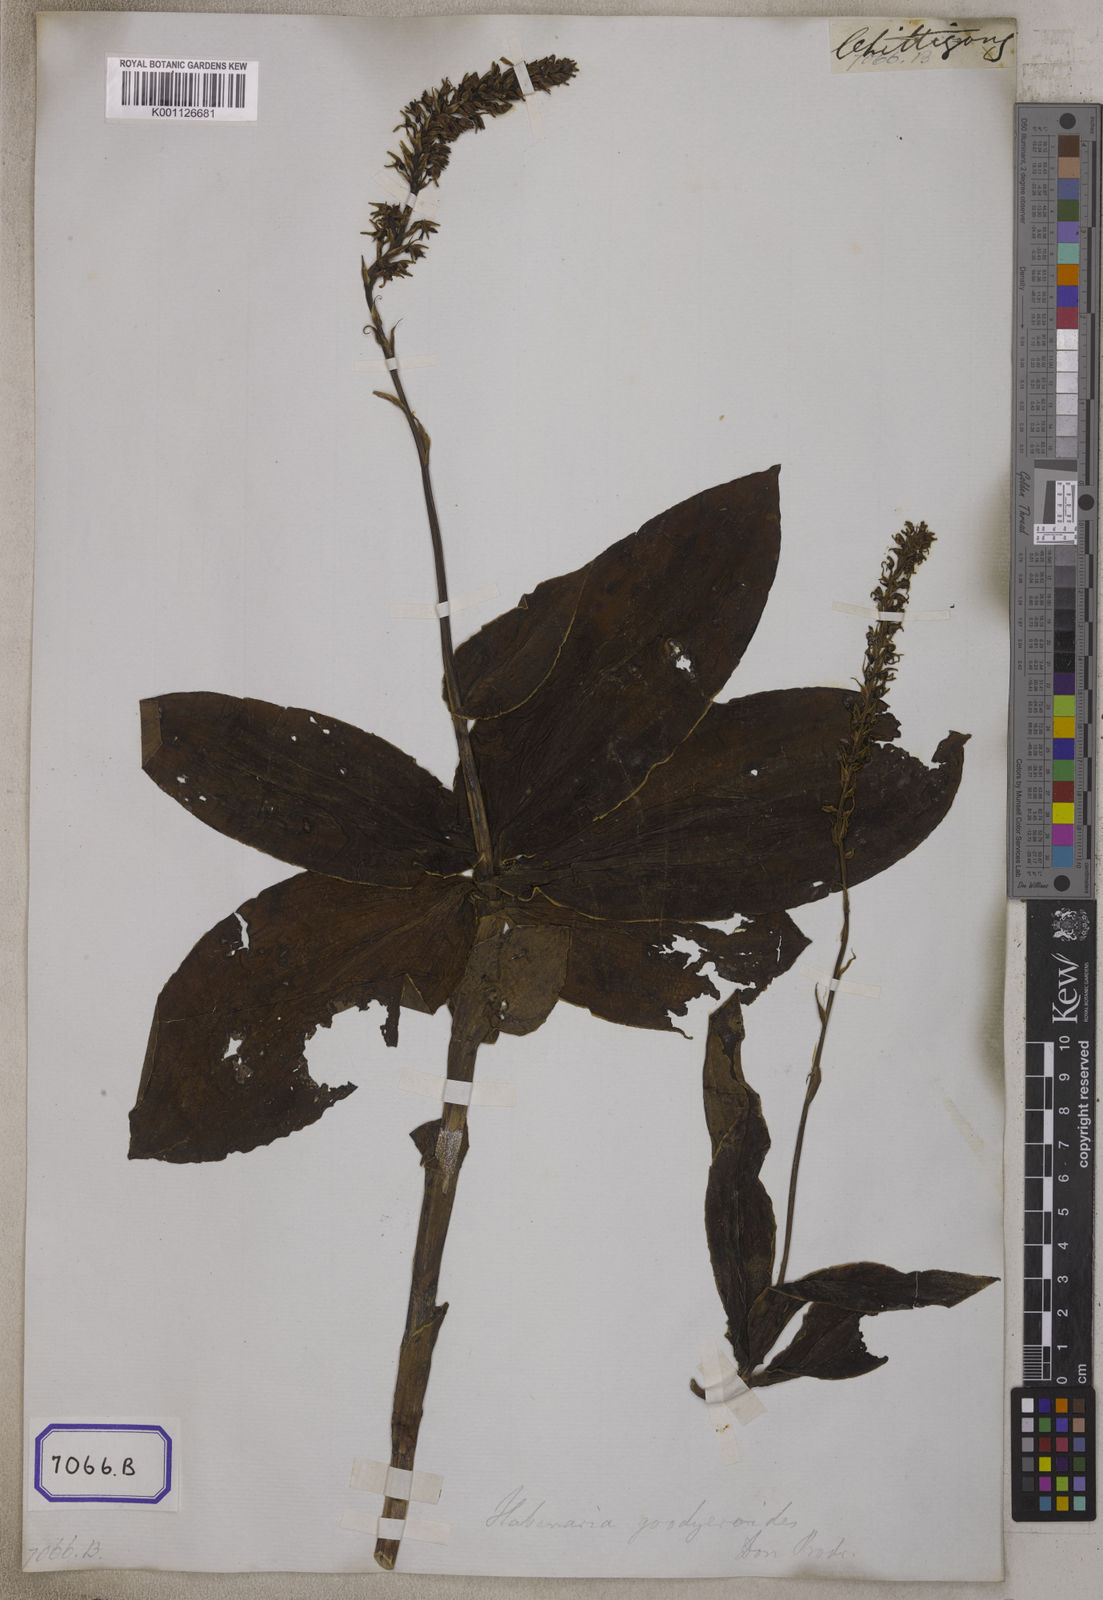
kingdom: Plantae
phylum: Tracheophyta
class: Liliopsida
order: Asparagales
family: Orchidaceae
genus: Herminium
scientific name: Herminium
